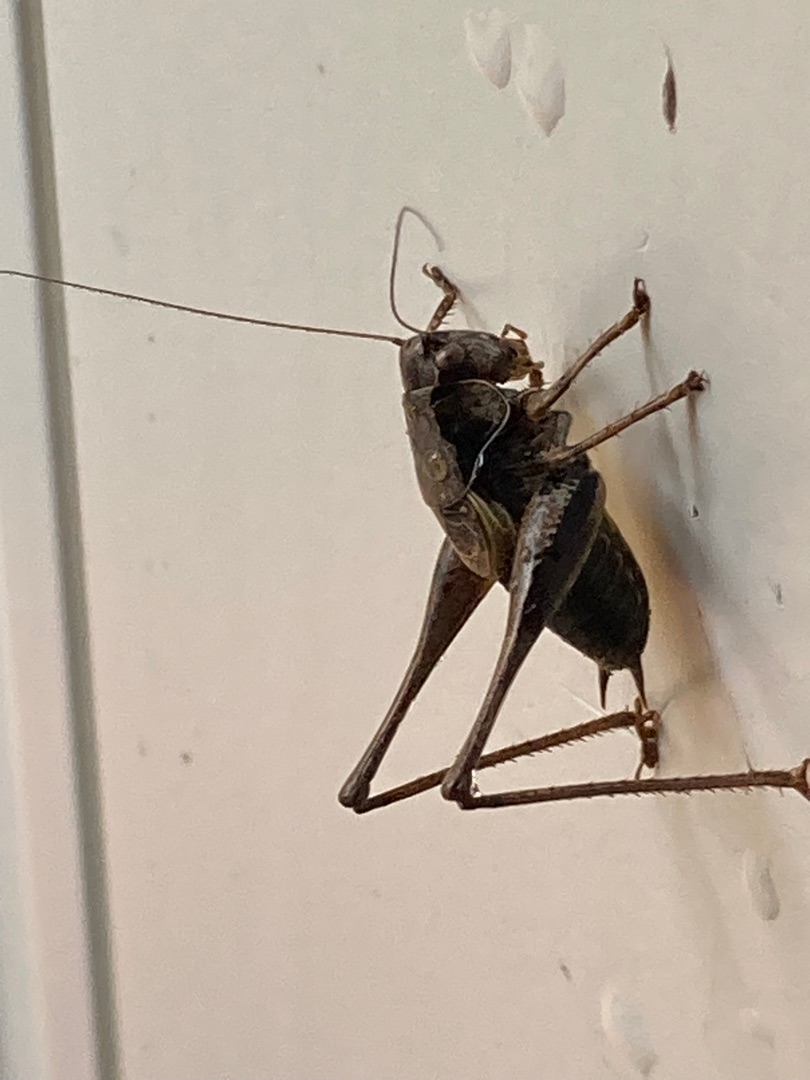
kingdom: Animalia
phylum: Arthropoda
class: Insecta
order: Orthoptera
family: Tettigoniidae
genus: Pholidoptera
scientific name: Pholidoptera griseoaptera
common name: Buskgræshoppe
